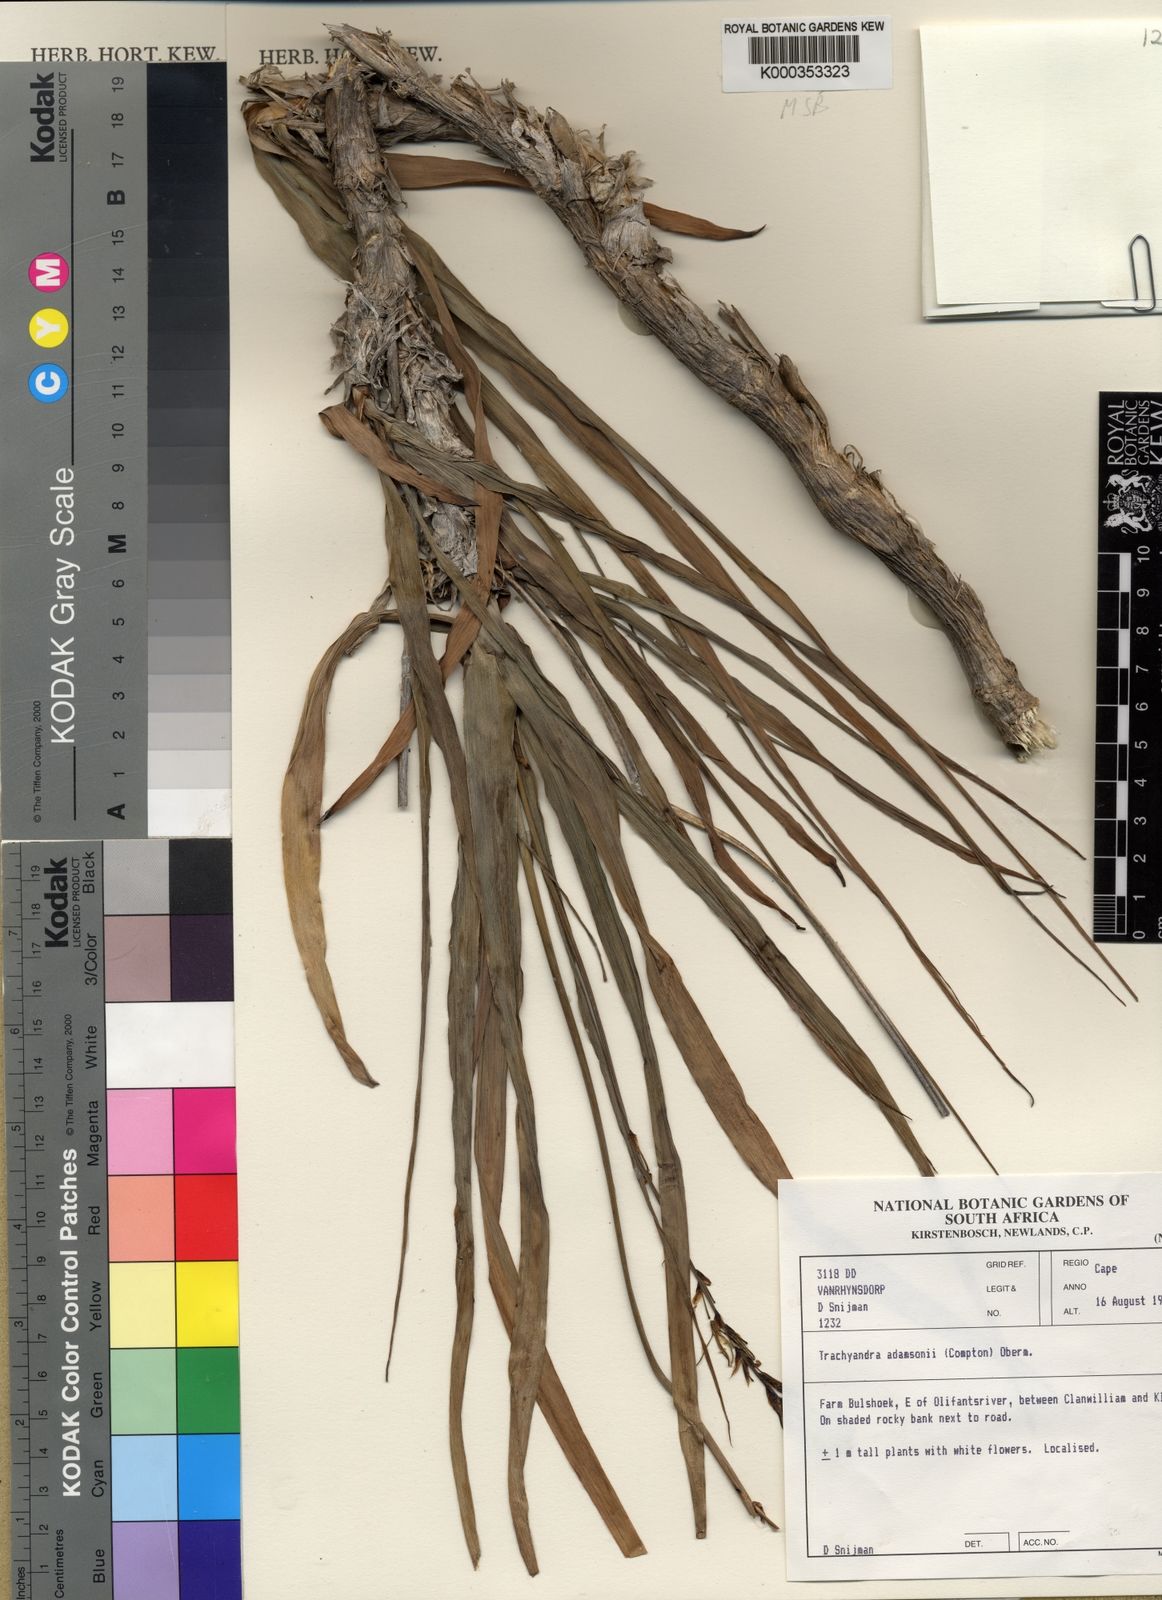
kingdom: Plantae
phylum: Tracheophyta
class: Liliopsida
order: Asparagales
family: Asphodelaceae
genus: Trachyandra
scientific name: Trachyandra adamsonii
